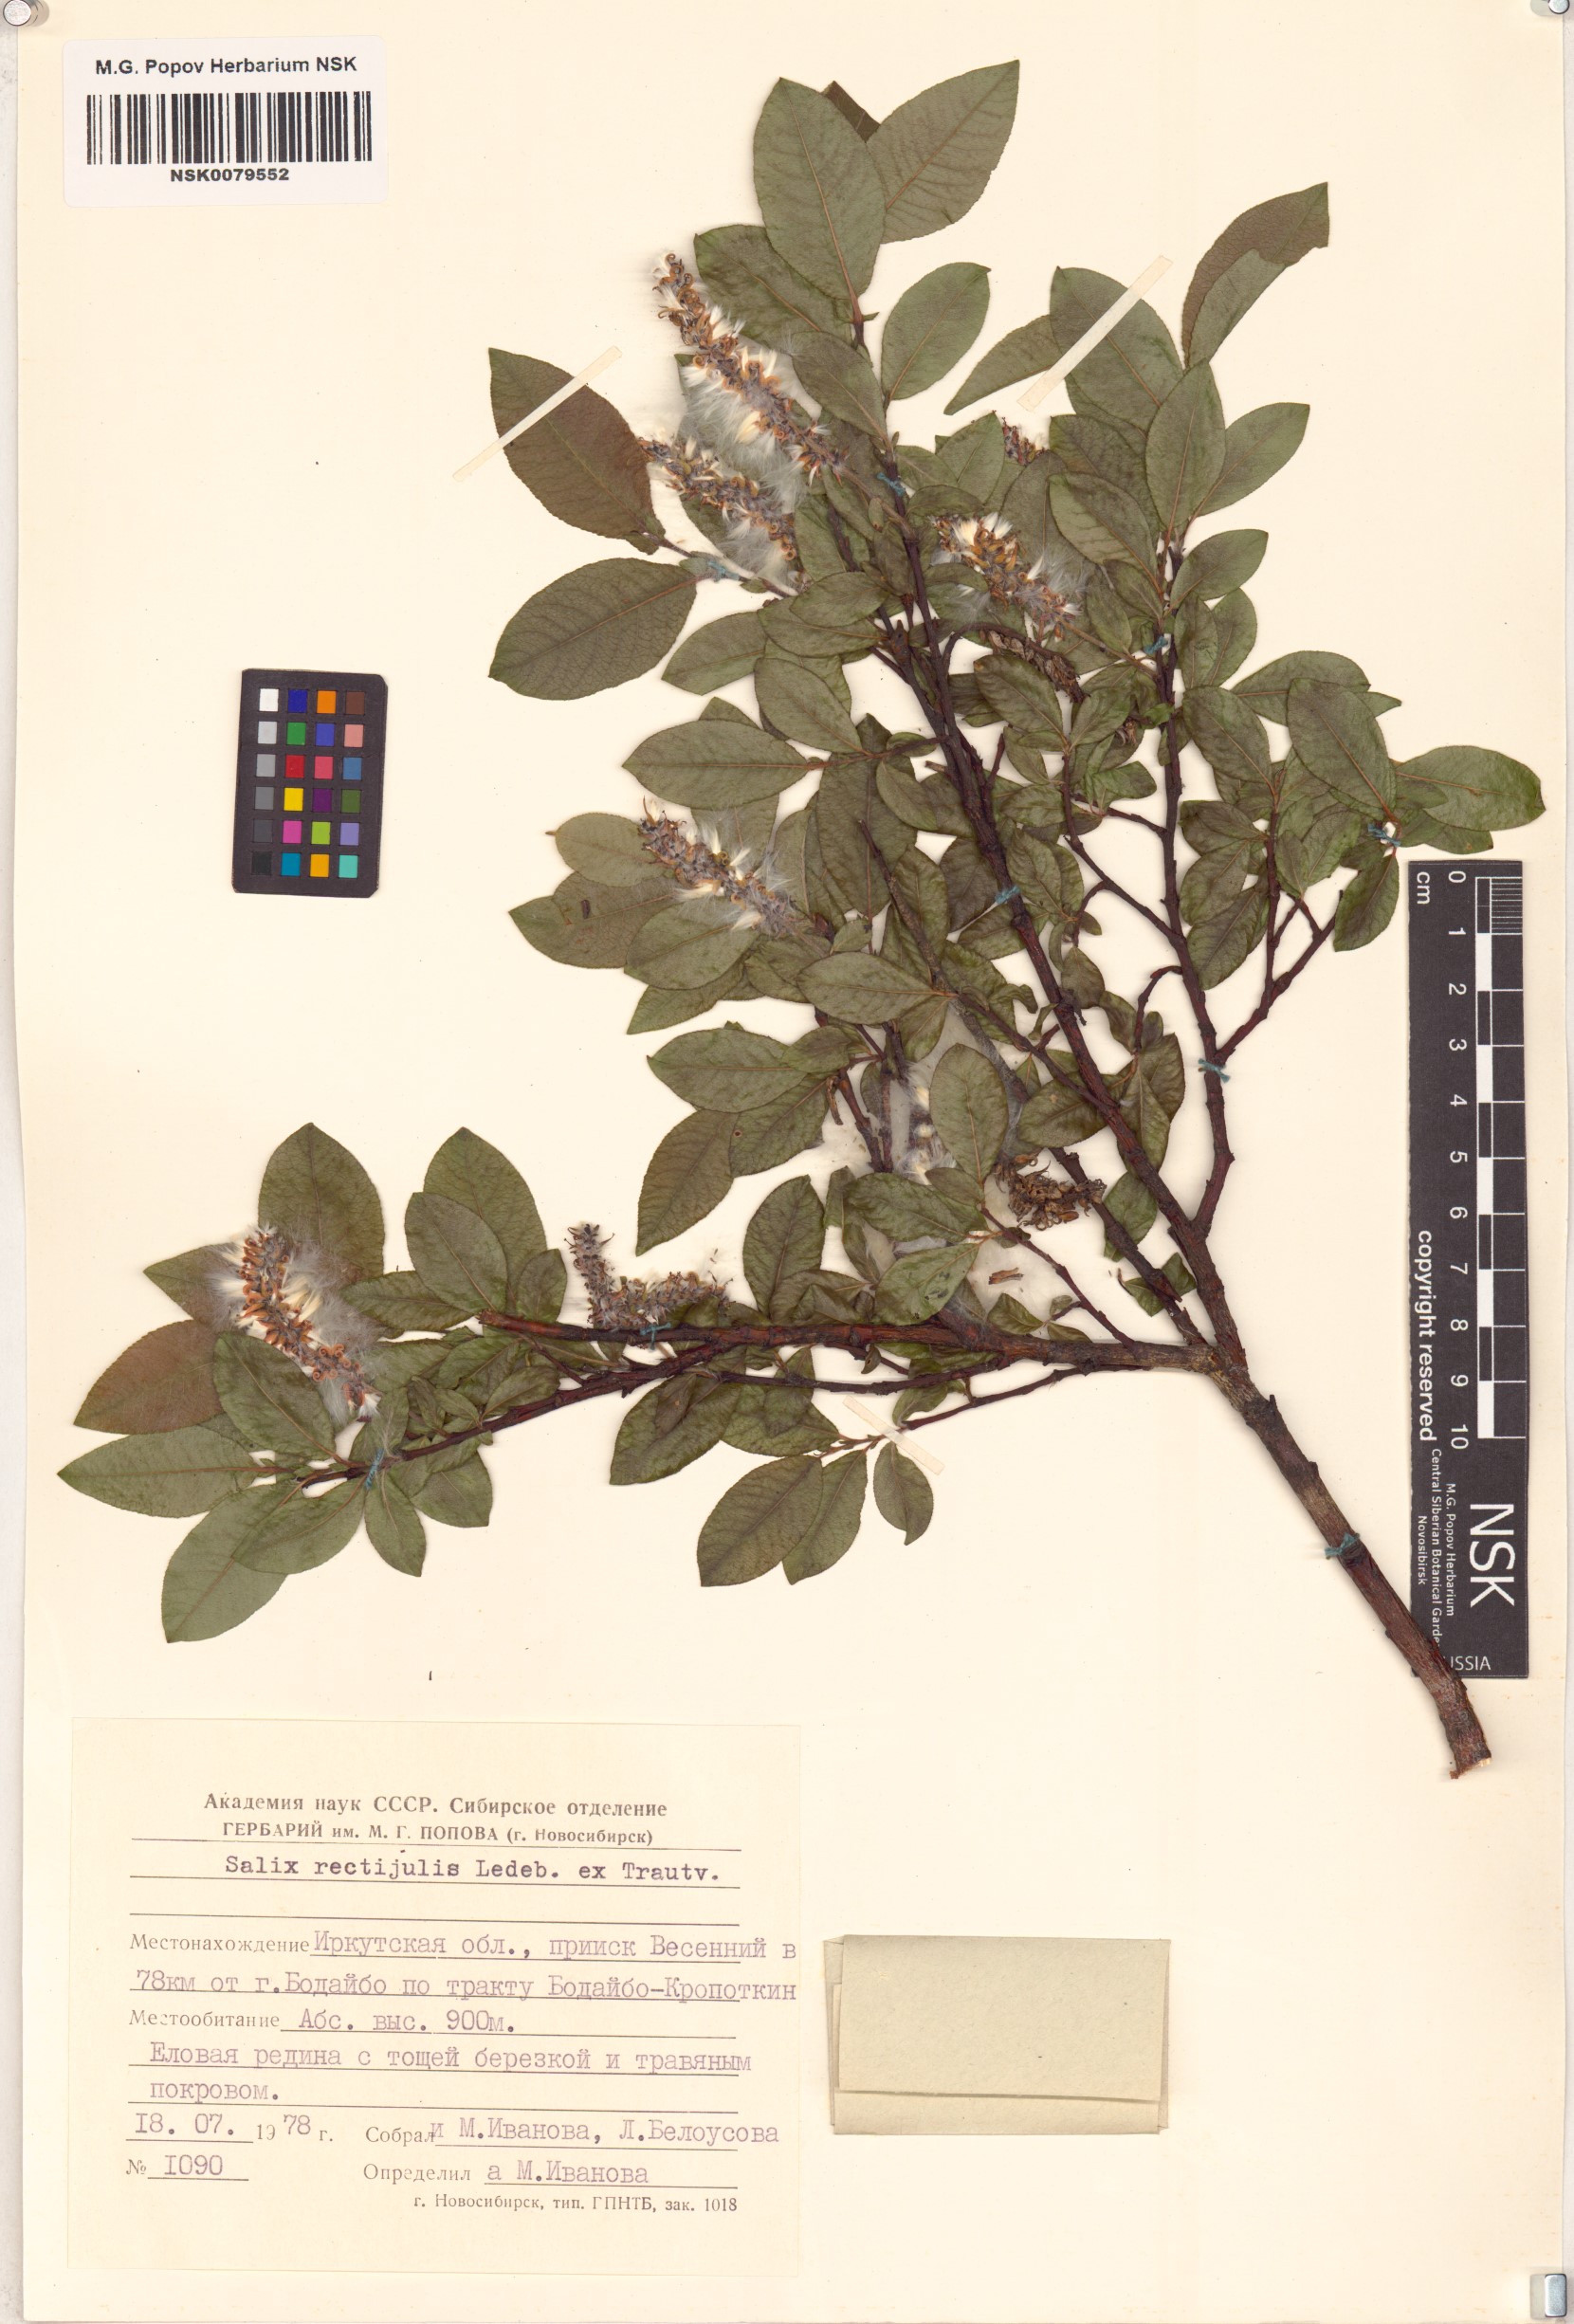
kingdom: Plantae
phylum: Tracheophyta
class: Magnoliopsida
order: Malpighiales
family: Salicaceae
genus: Salix
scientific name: Salix rectijulis
